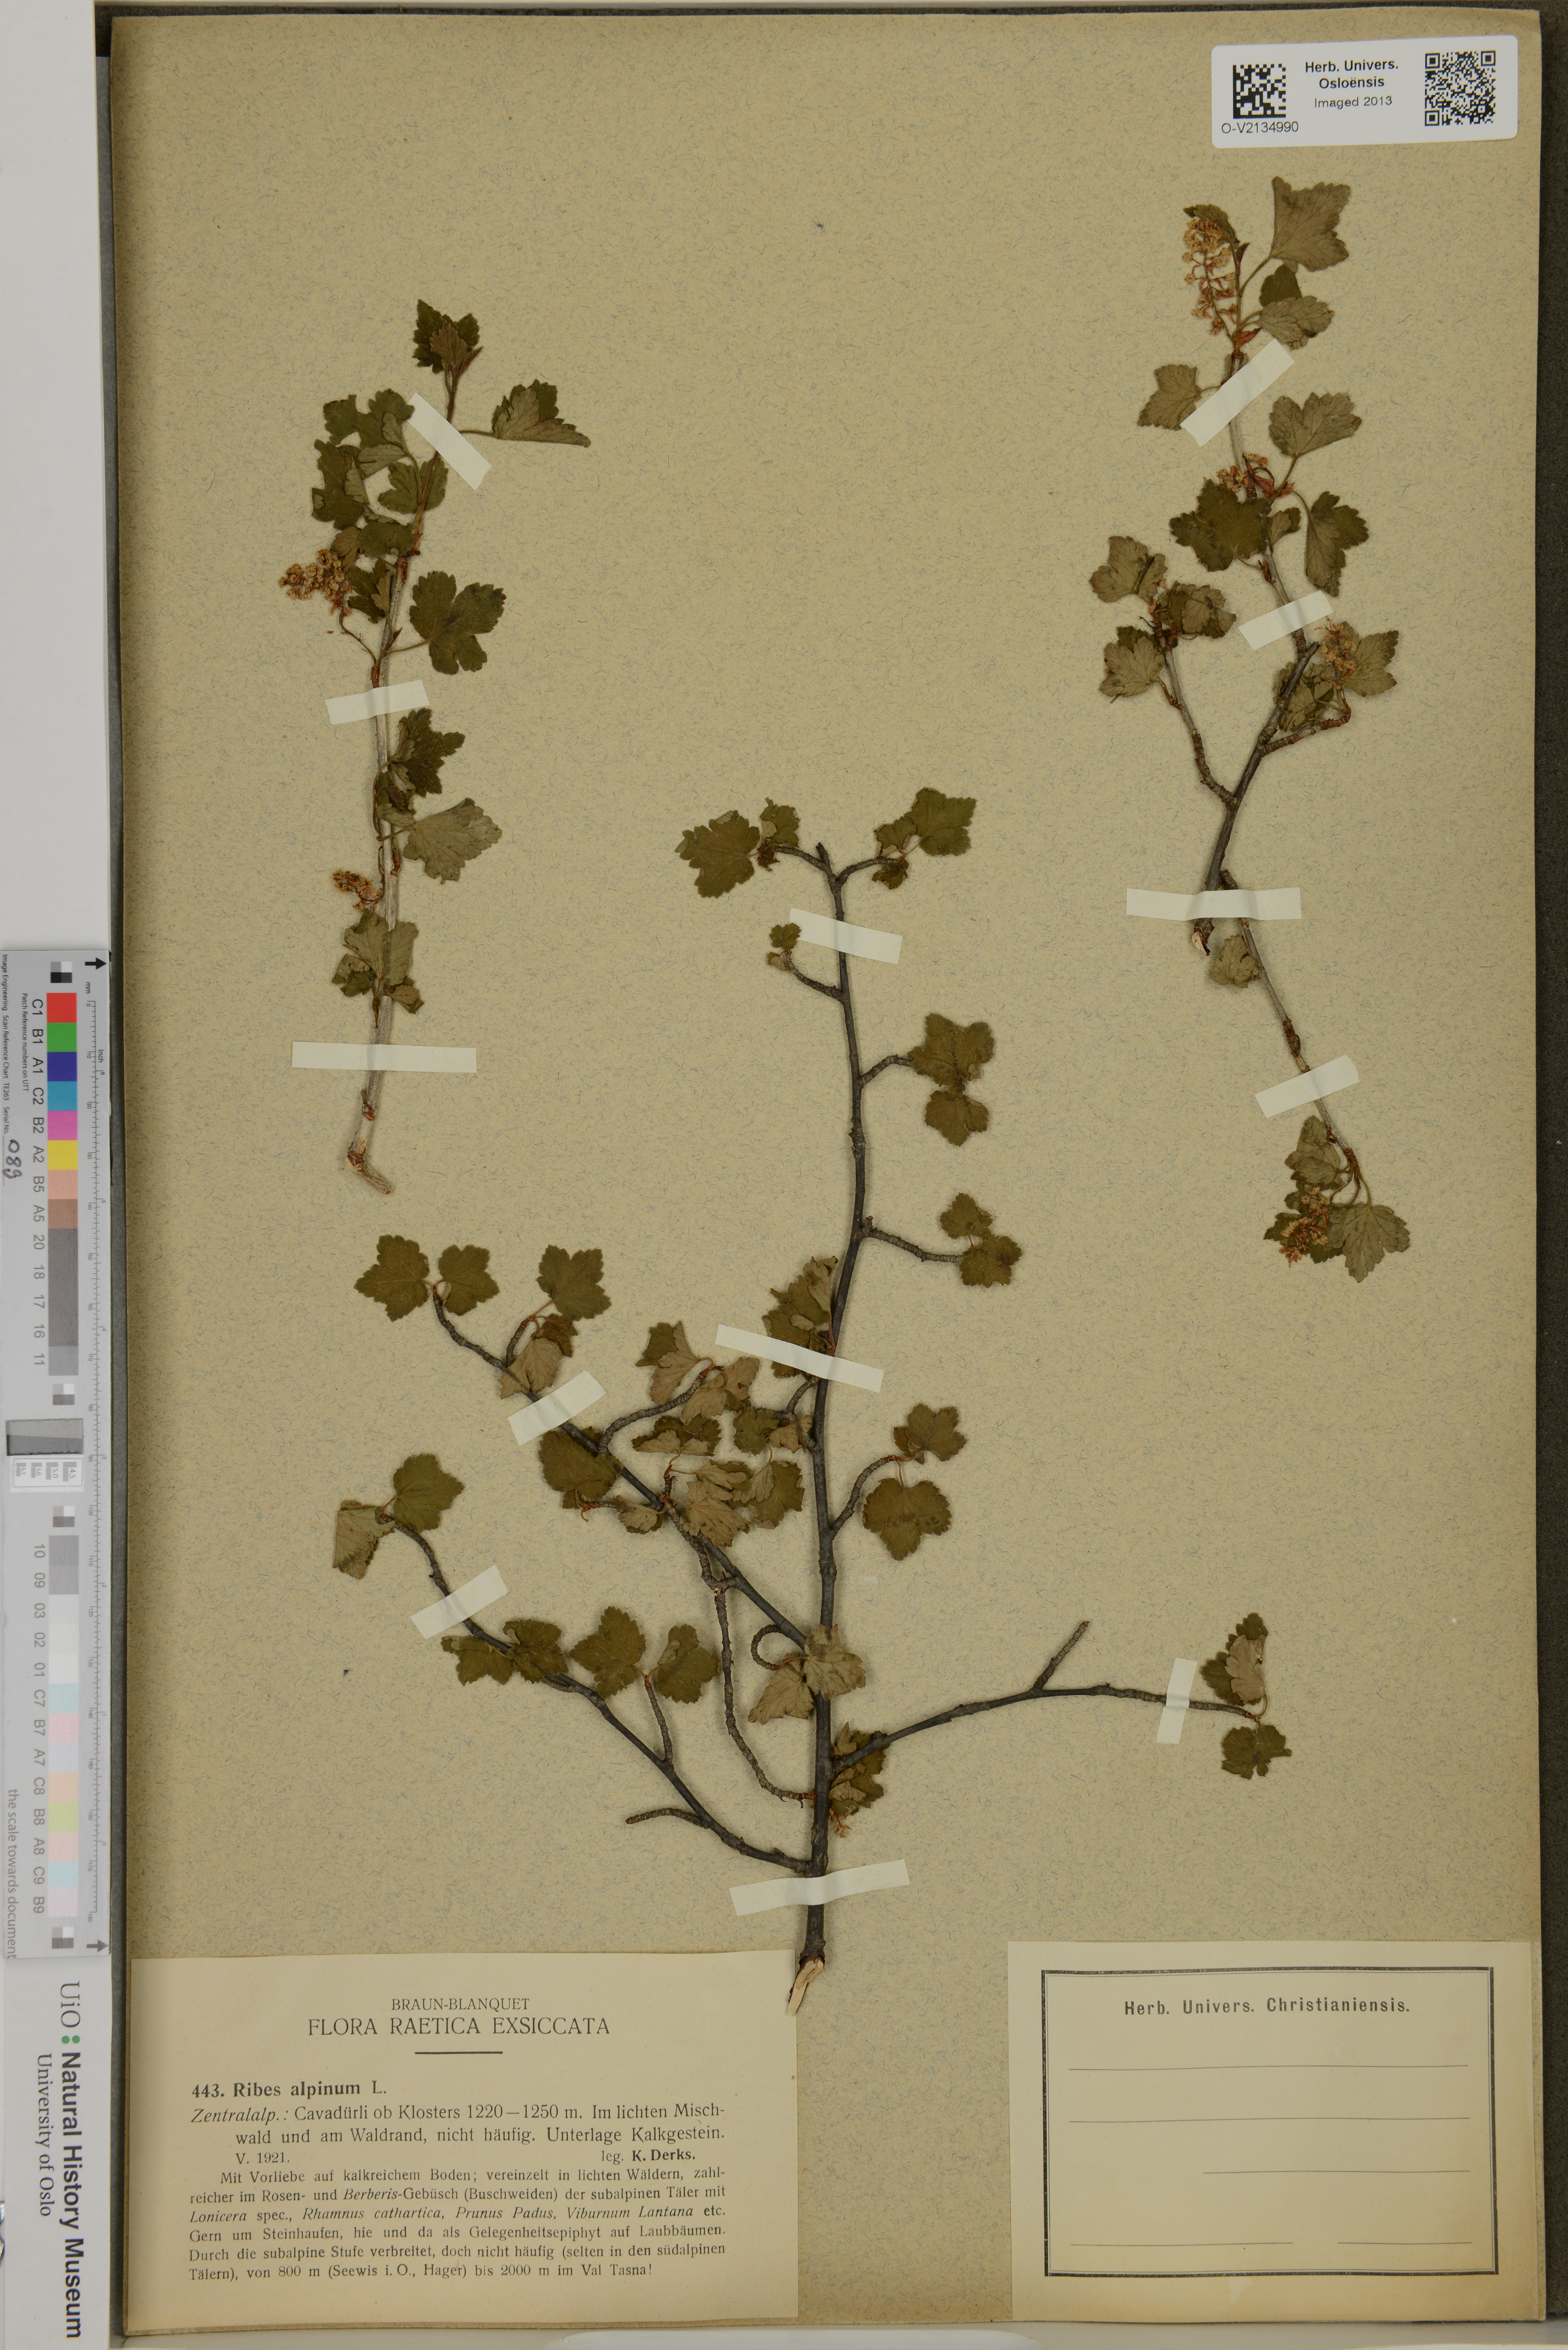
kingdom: Plantae
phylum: Tracheophyta
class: Magnoliopsida
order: Saxifragales
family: Grossulariaceae
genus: Ribes
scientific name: Ribes alpinum
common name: Alpine currant
